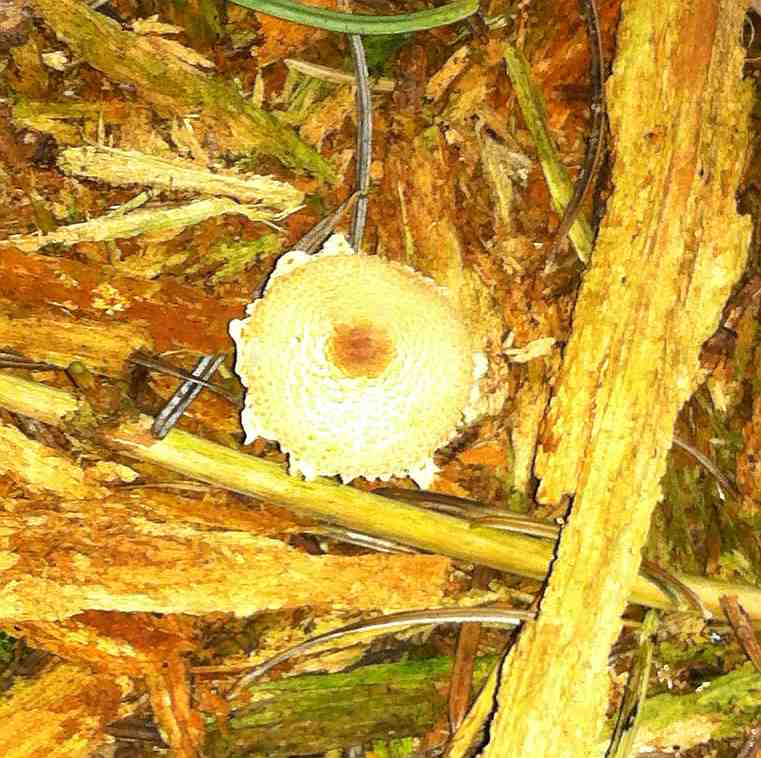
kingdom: Fungi
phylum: Basidiomycota
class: Agaricomycetes
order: Agaricales
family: Agaricaceae
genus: Lepiota
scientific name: Lepiota magnispora
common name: gulfnugget parasolhat
